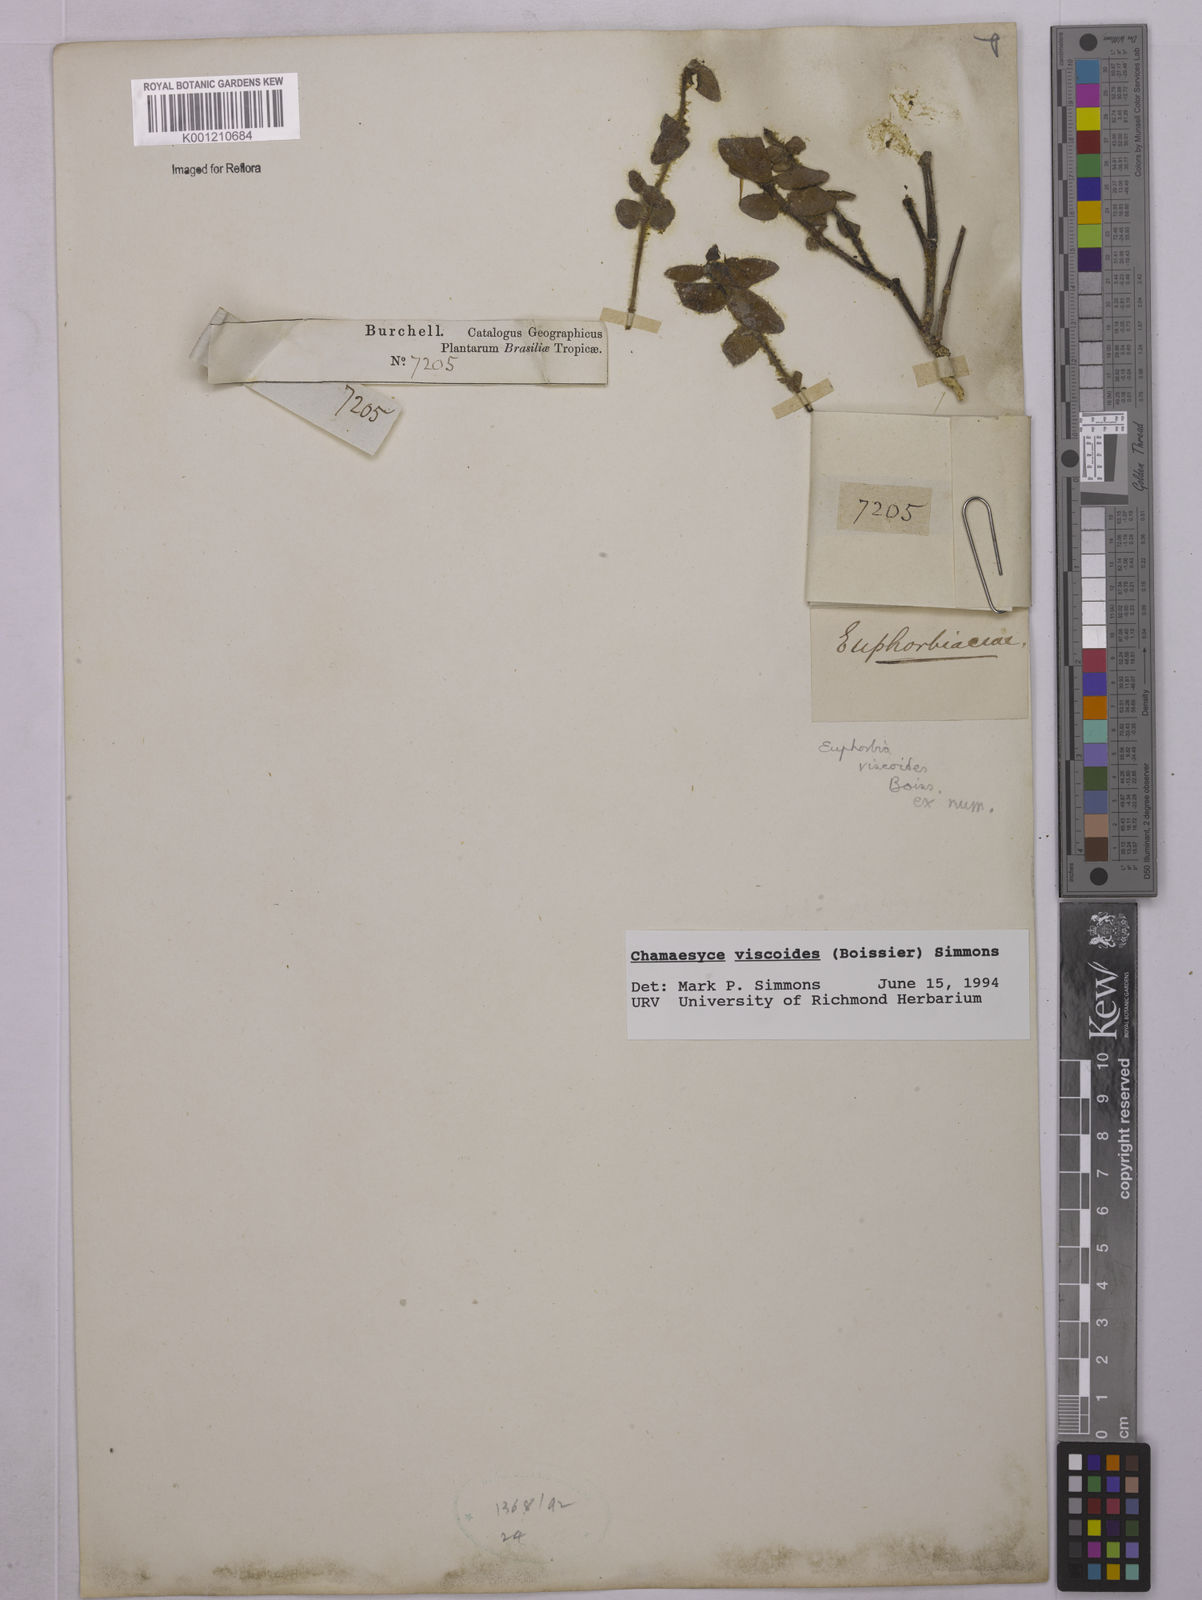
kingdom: Plantae
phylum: Tracheophyta
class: Magnoliopsida
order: Malpighiales
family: Euphorbiaceae
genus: Euphorbia
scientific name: Euphorbia viscoides
